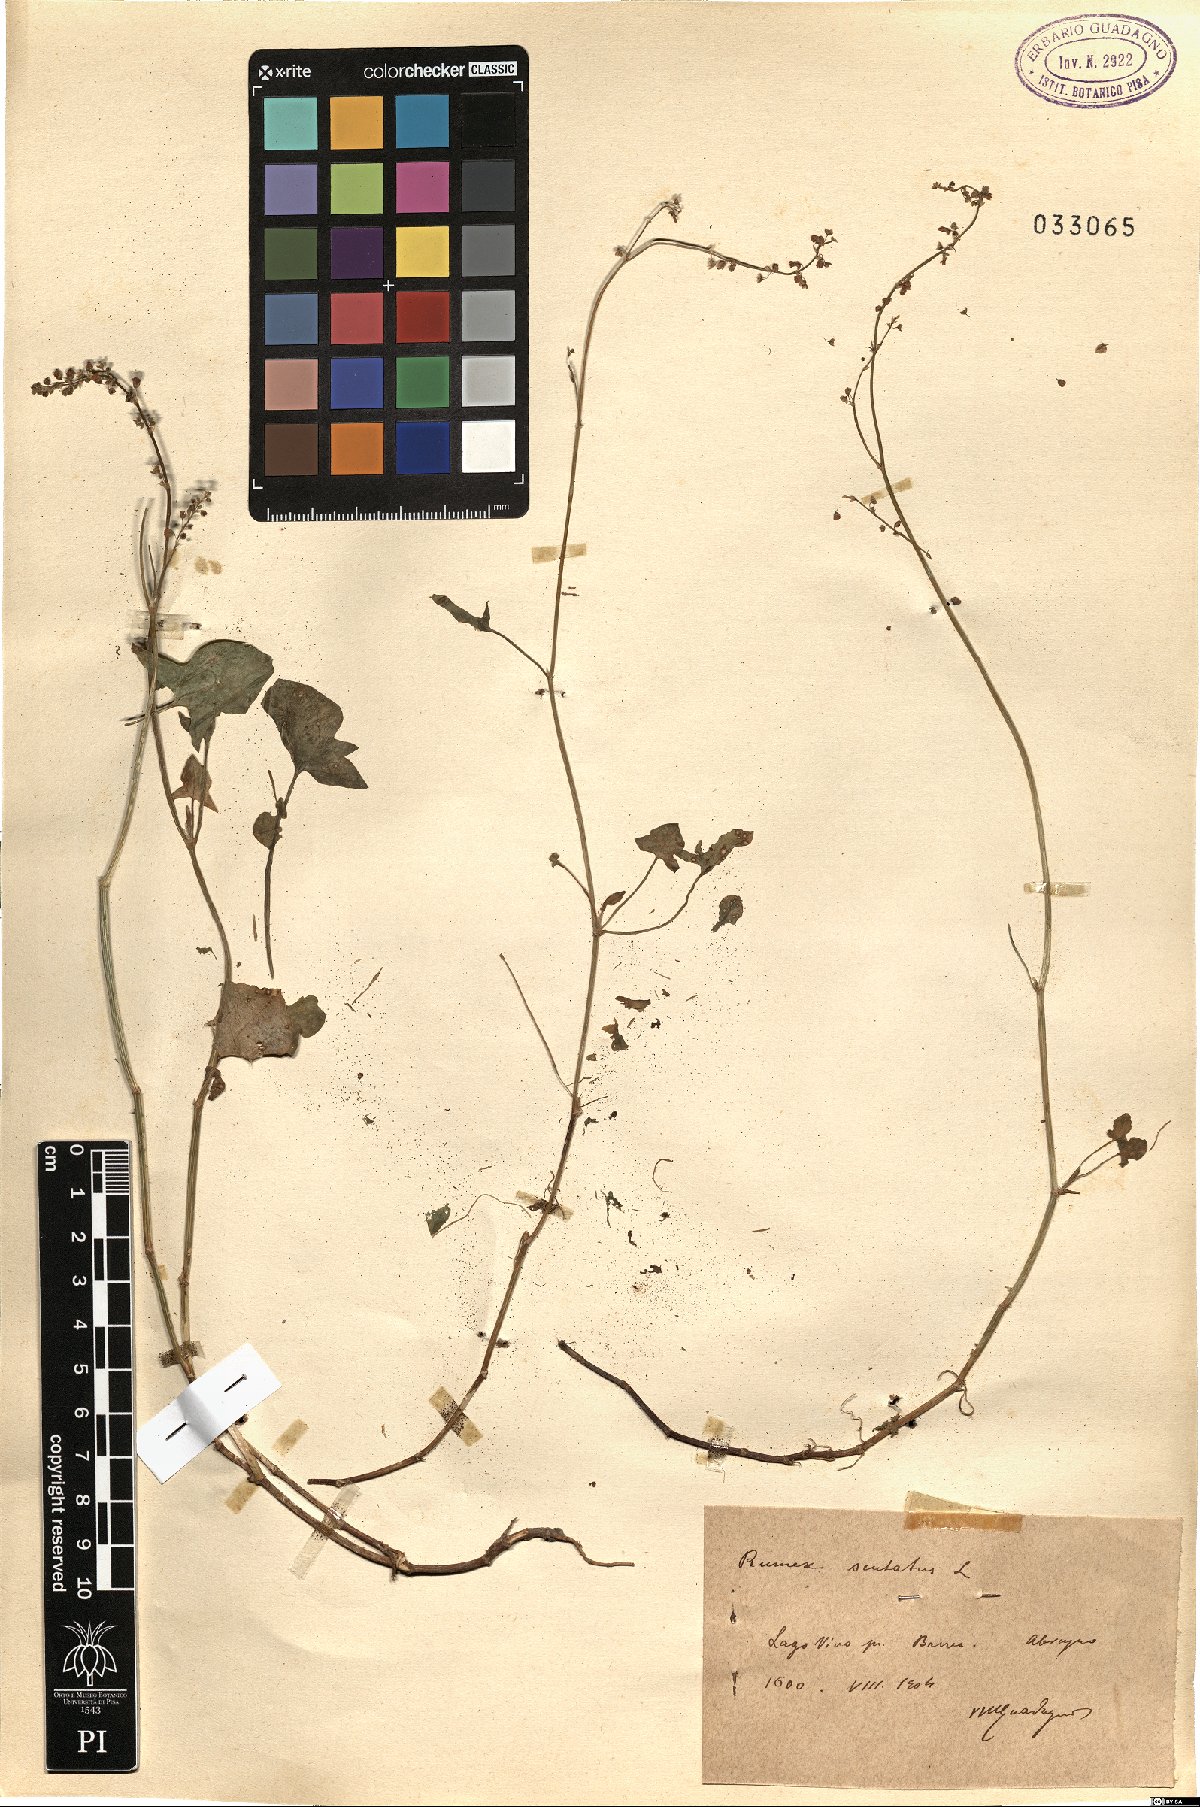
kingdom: Plantae
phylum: Tracheophyta
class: Magnoliopsida
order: Caryophyllales
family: Polygonaceae
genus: Rumex
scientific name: Rumex scutatus
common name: French sorrel
